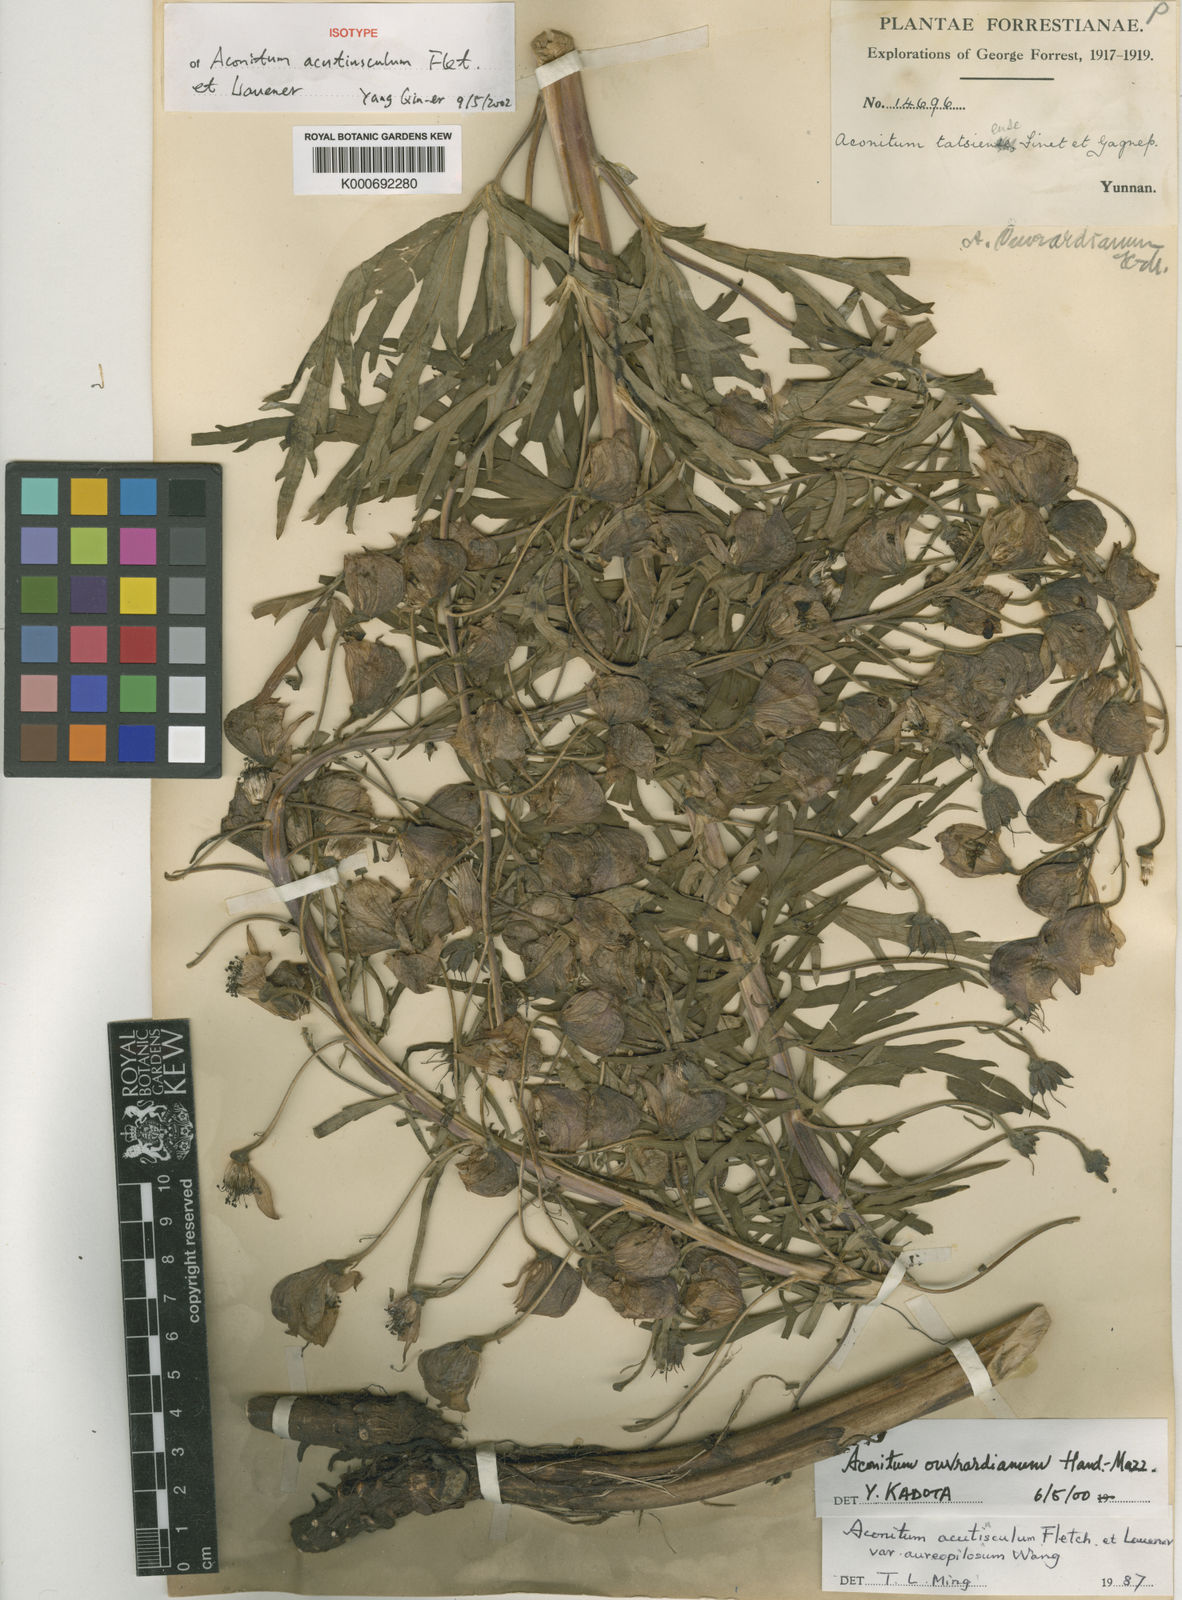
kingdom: Plantae
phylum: Tracheophyta
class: Magnoliopsida
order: Ranunculales
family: Ranunculaceae
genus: Aconitum
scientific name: Aconitum abietetorum
